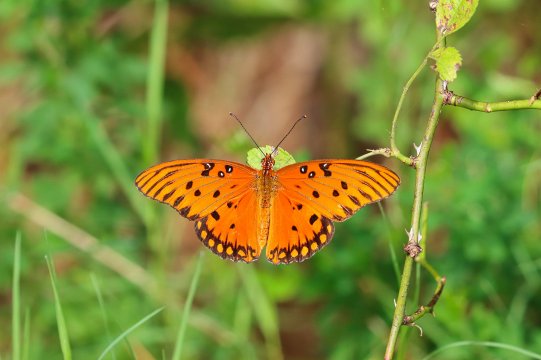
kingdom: Animalia
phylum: Arthropoda
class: Insecta
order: Lepidoptera
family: Nymphalidae
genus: Dione
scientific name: Dione vanillae
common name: Gulf Fritillary
